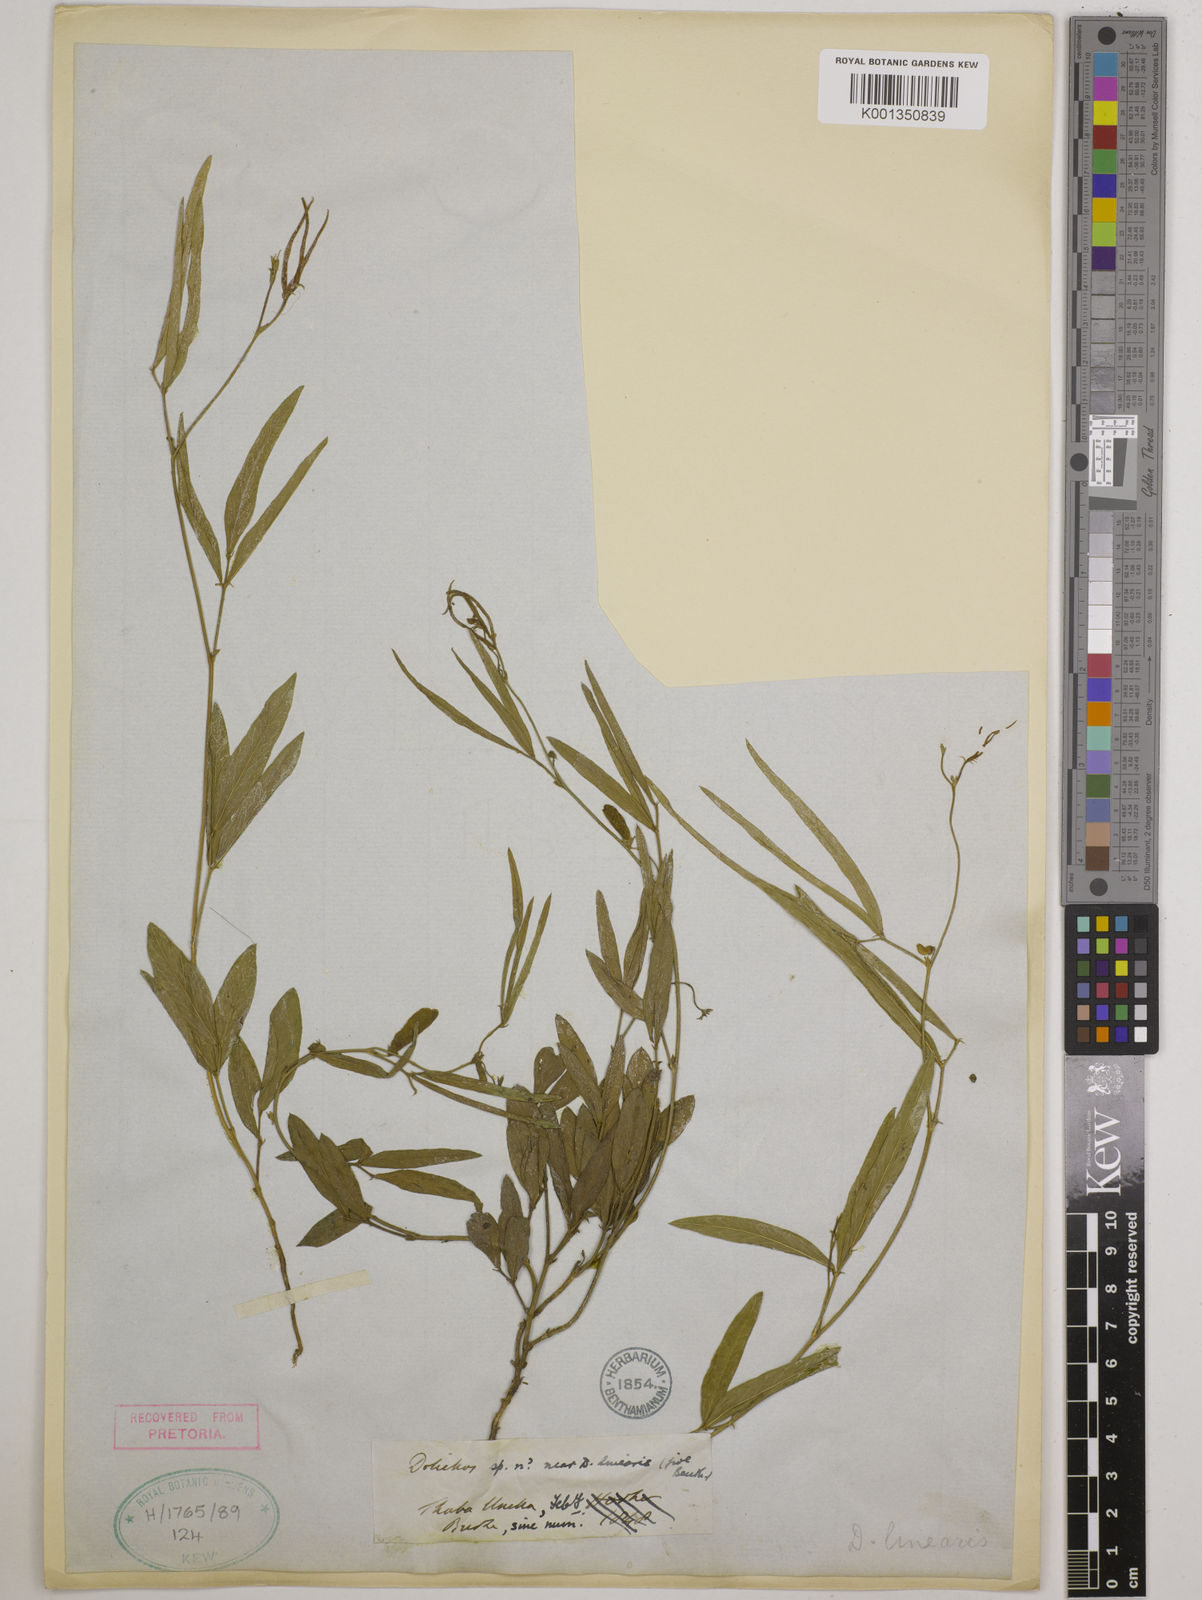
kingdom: Plantae
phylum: Tracheophyta
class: Magnoliopsida
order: Fabales
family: Fabaceae
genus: Dolichos
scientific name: Dolichos linearis
